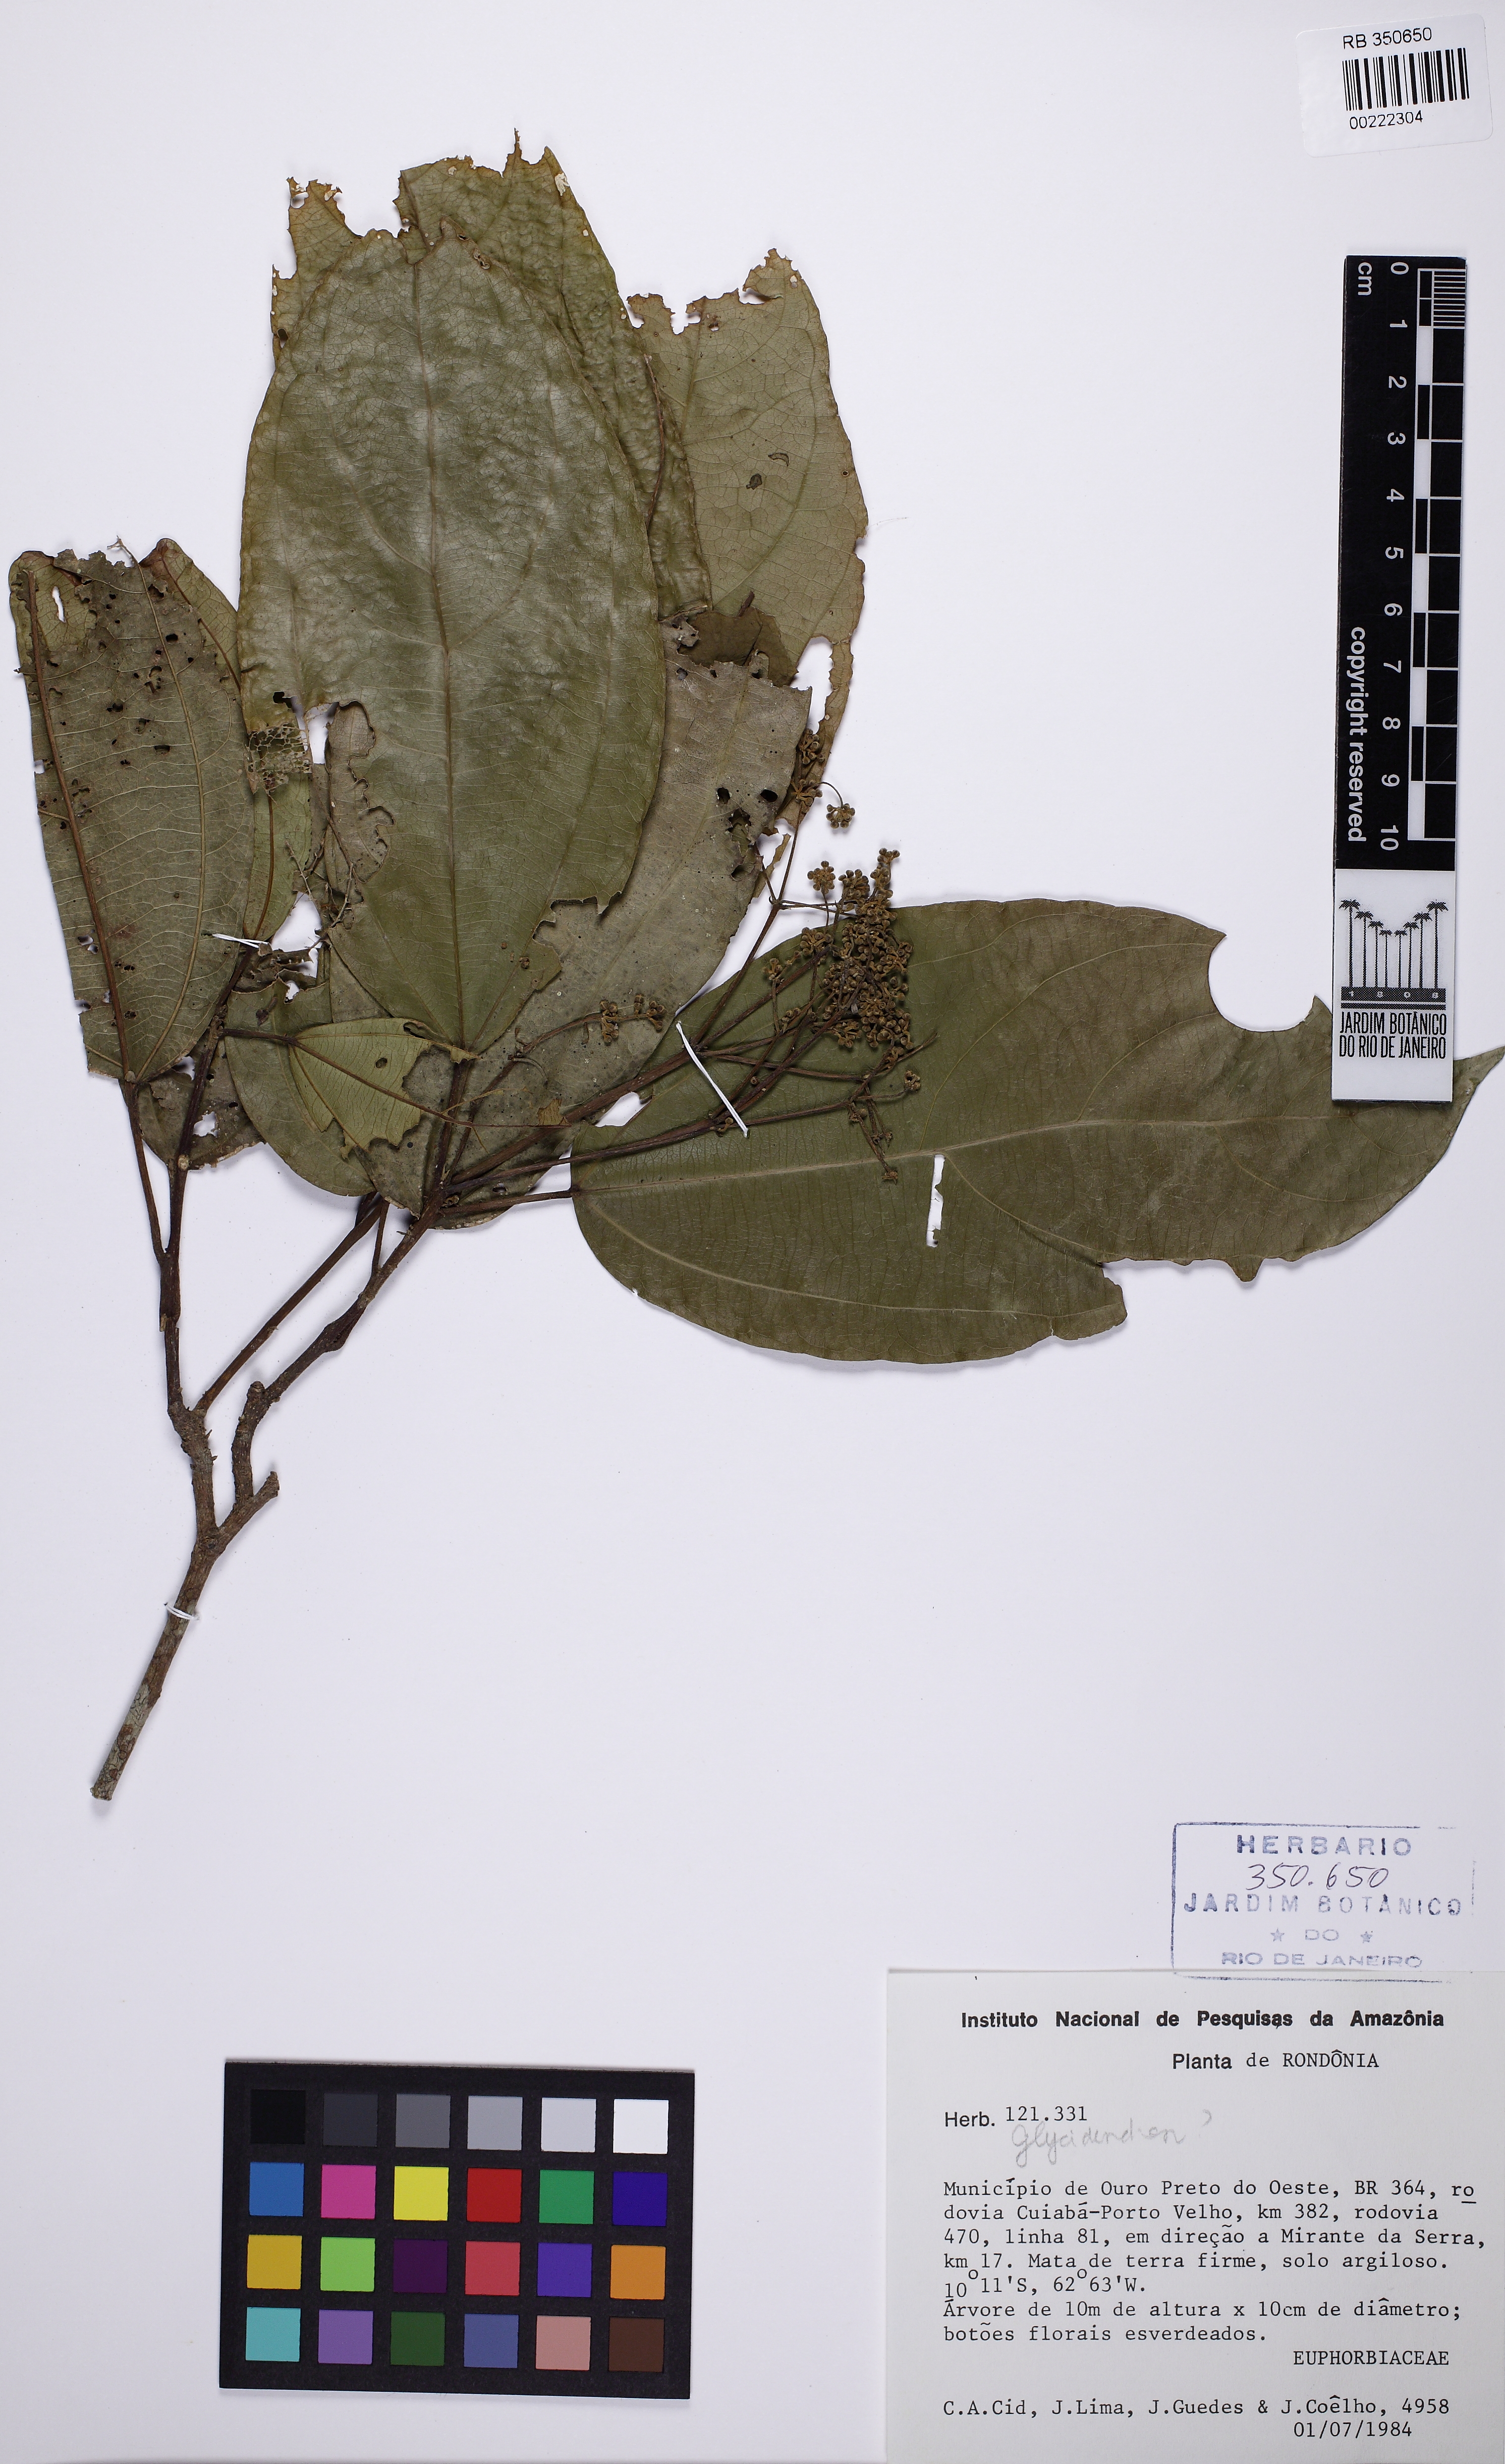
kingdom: Plantae
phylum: Tracheophyta
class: Magnoliopsida
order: Malpighiales
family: Euphorbiaceae
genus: Glycydendron
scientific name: Glycydendron amazonicum
